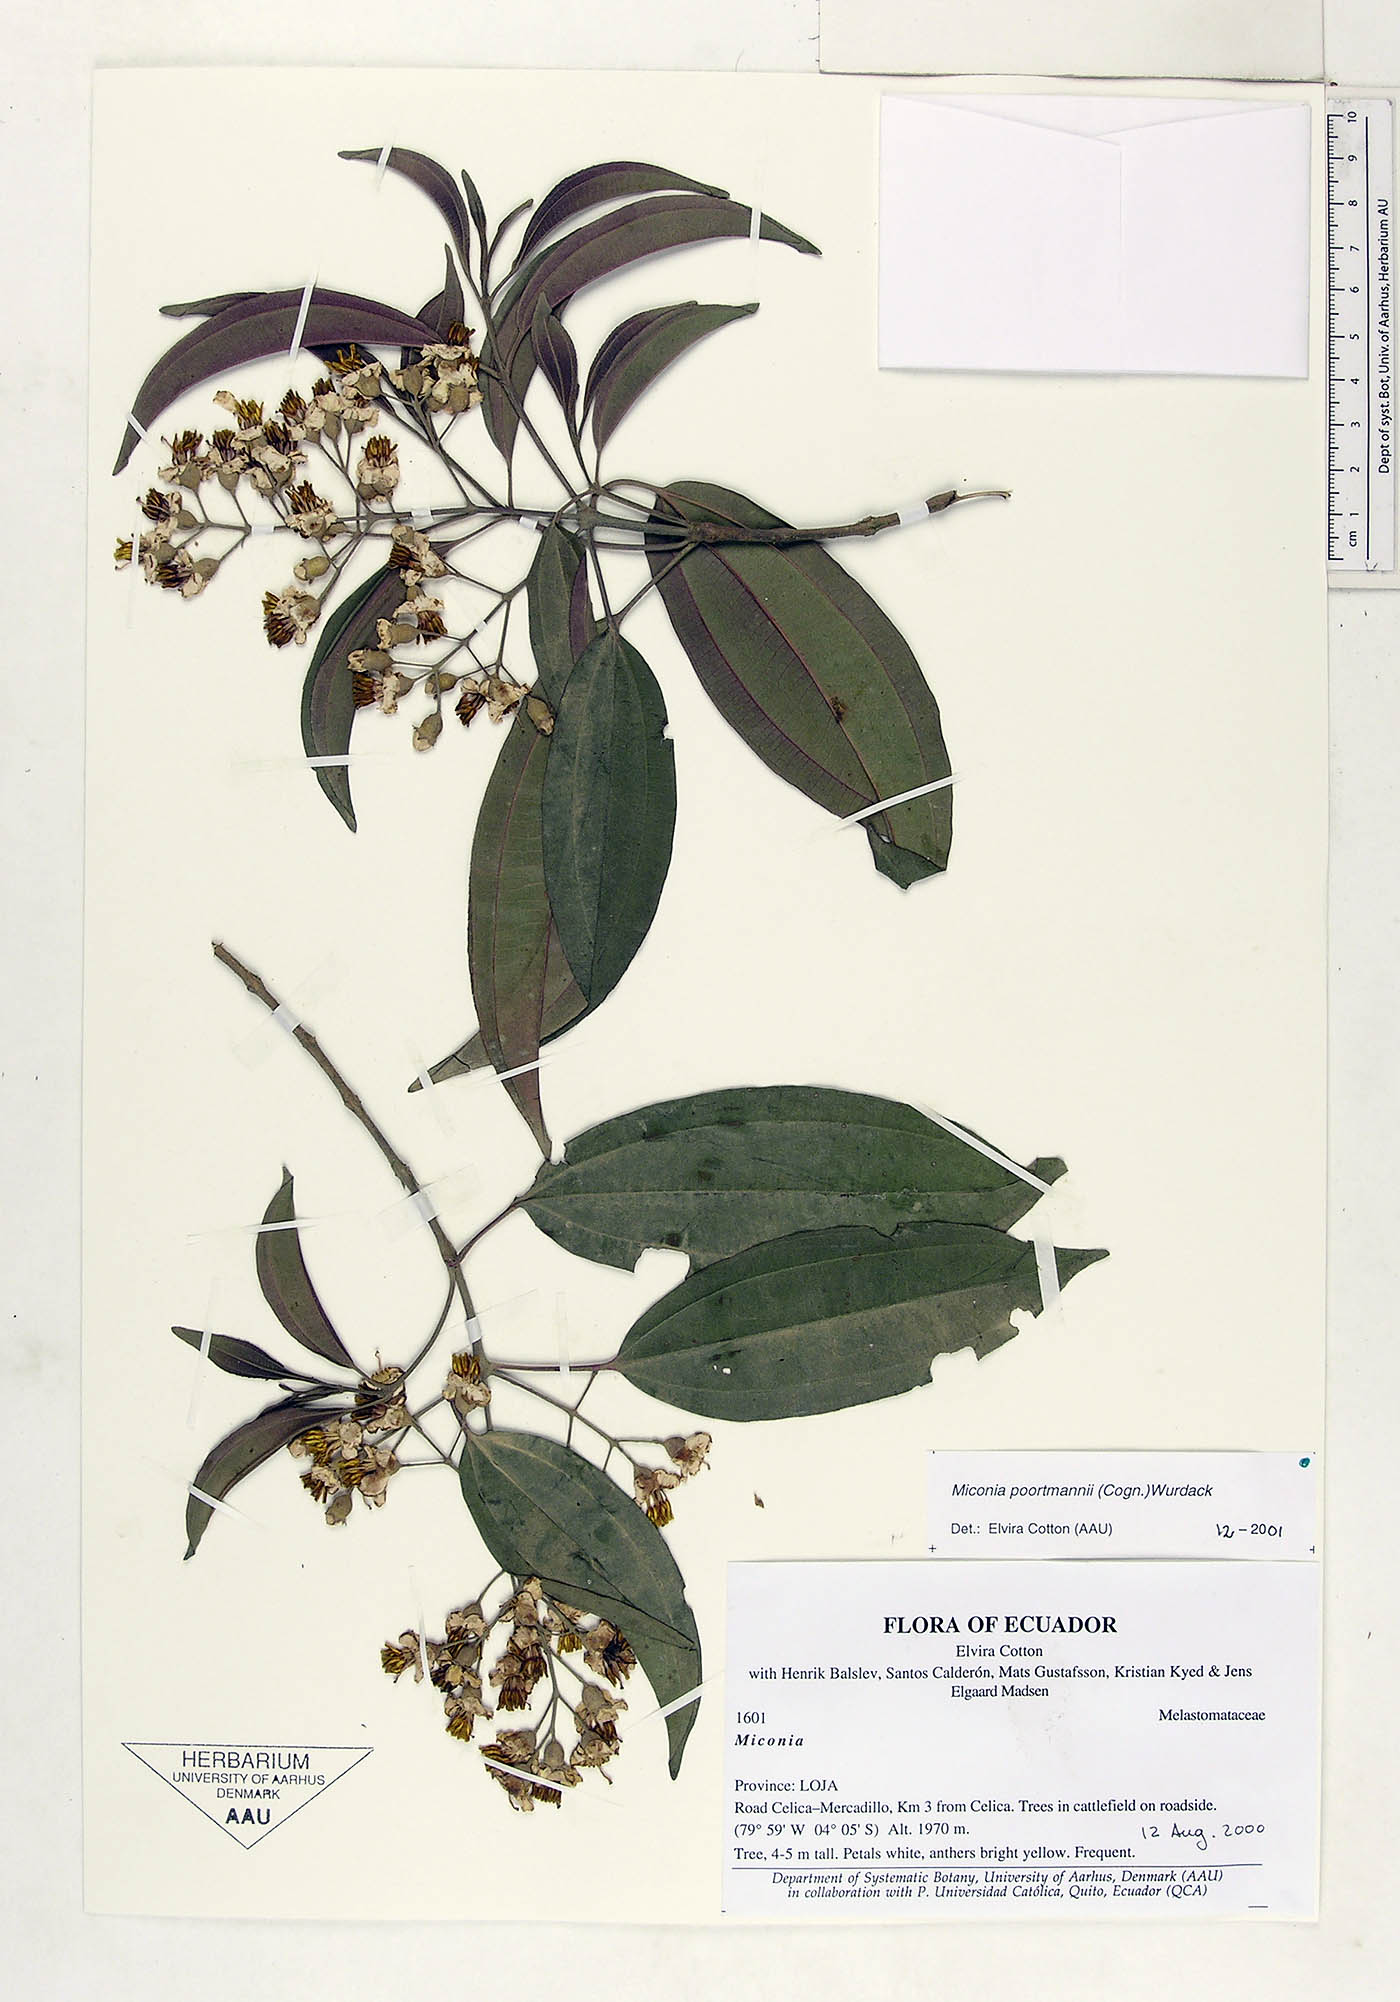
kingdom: Plantae
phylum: Tracheophyta
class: Magnoliopsida
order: Myrtales
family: Melastomataceae
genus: Miconia
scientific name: Miconia poortmannii
